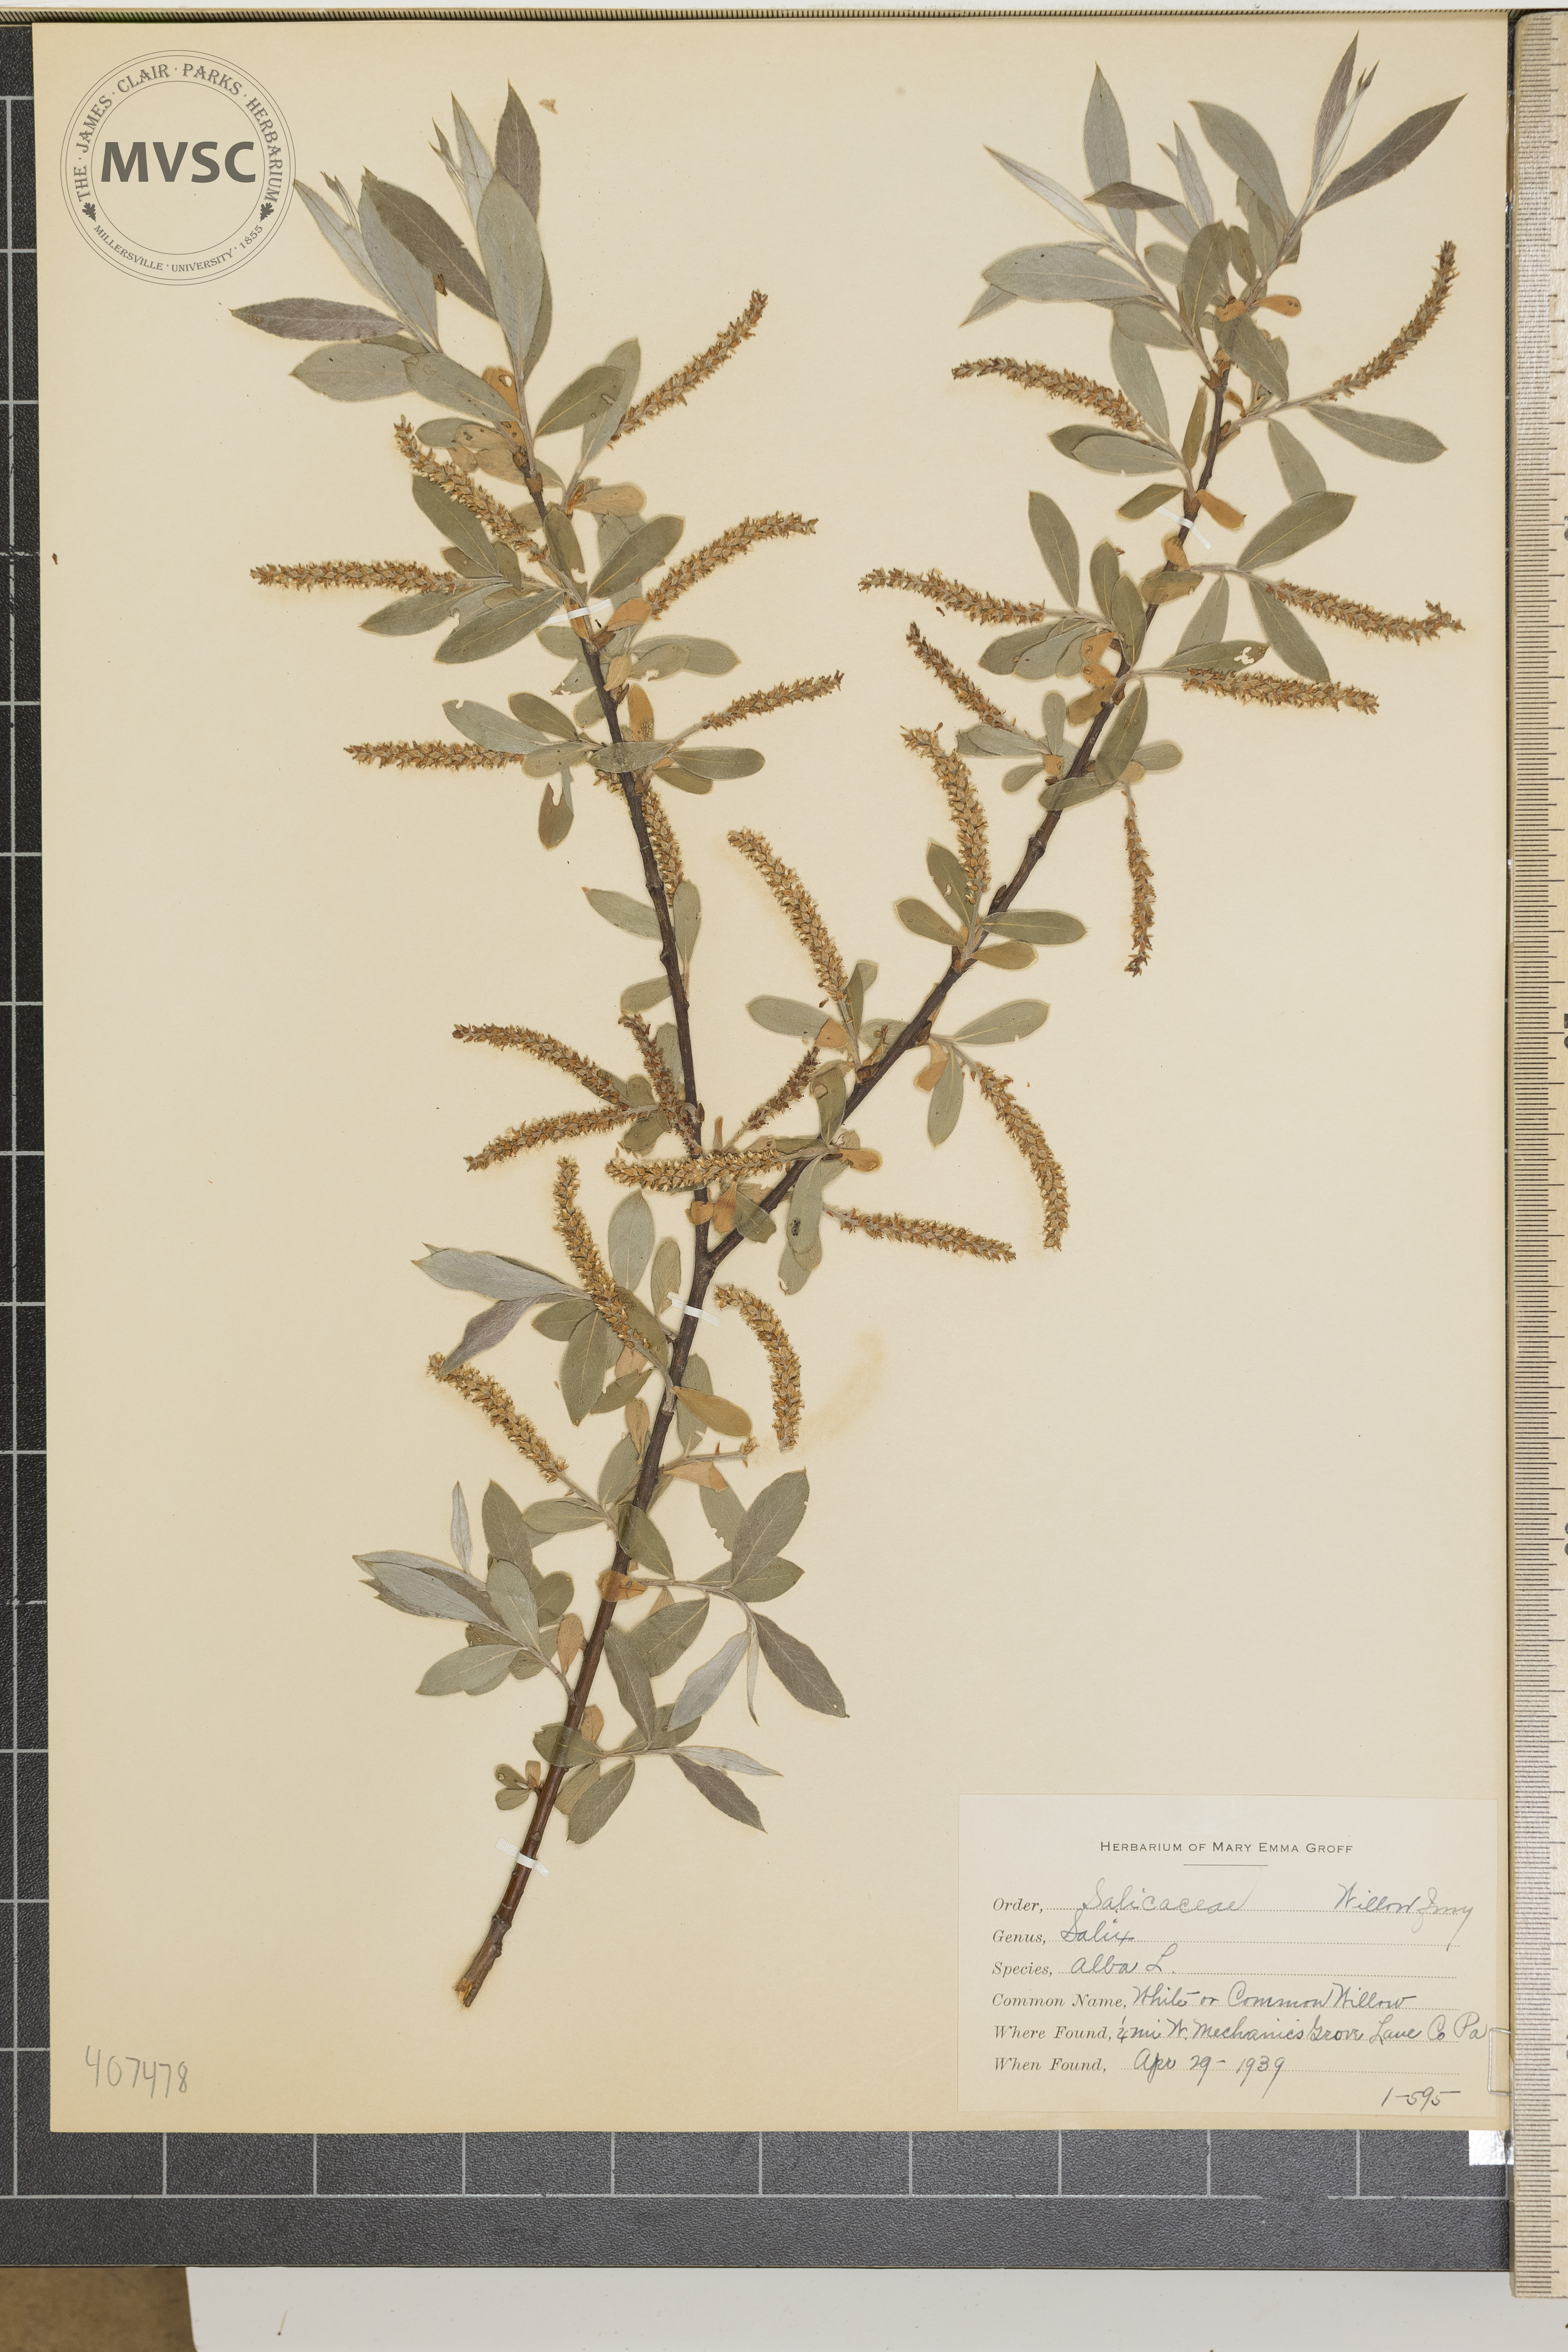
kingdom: Plantae
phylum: Tracheophyta
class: Magnoliopsida
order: Malpighiales
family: Salicaceae
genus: Salix
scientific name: Salix alba
